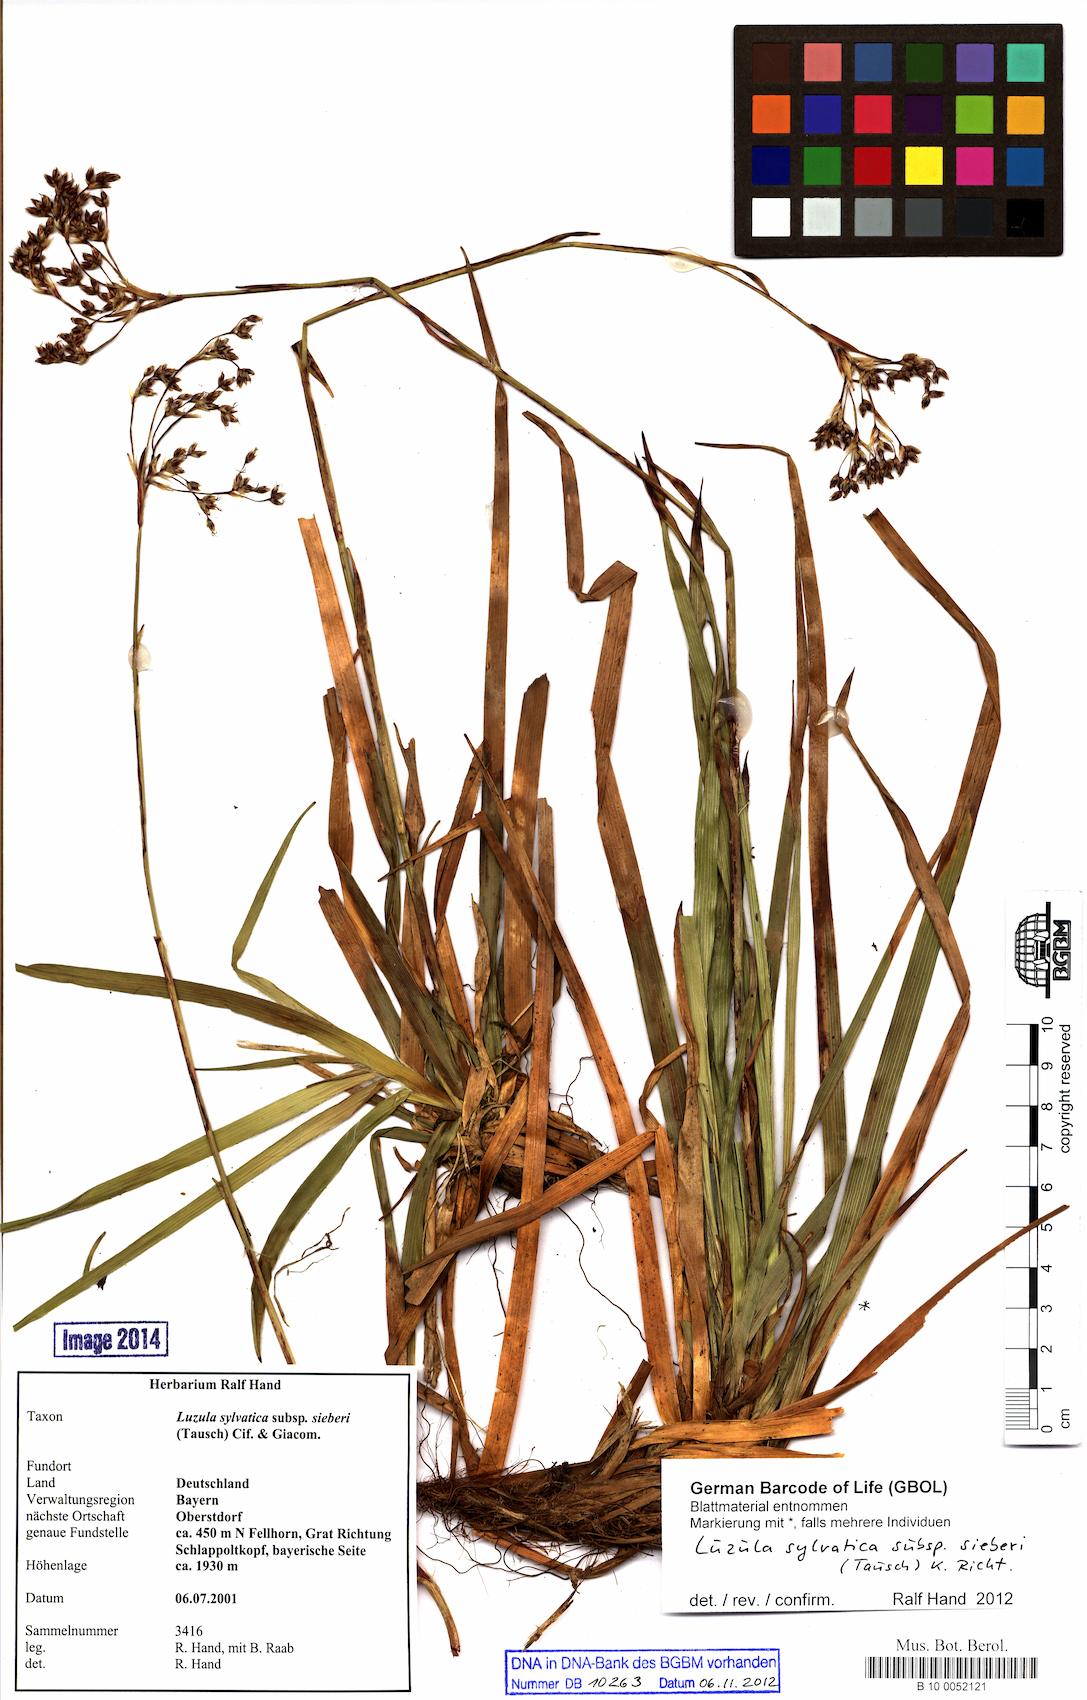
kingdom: Plantae
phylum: Tracheophyta
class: Liliopsida
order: Poales
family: Juncaceae
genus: Luzula
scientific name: Luzula sylvatica
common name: Great wood-rush
